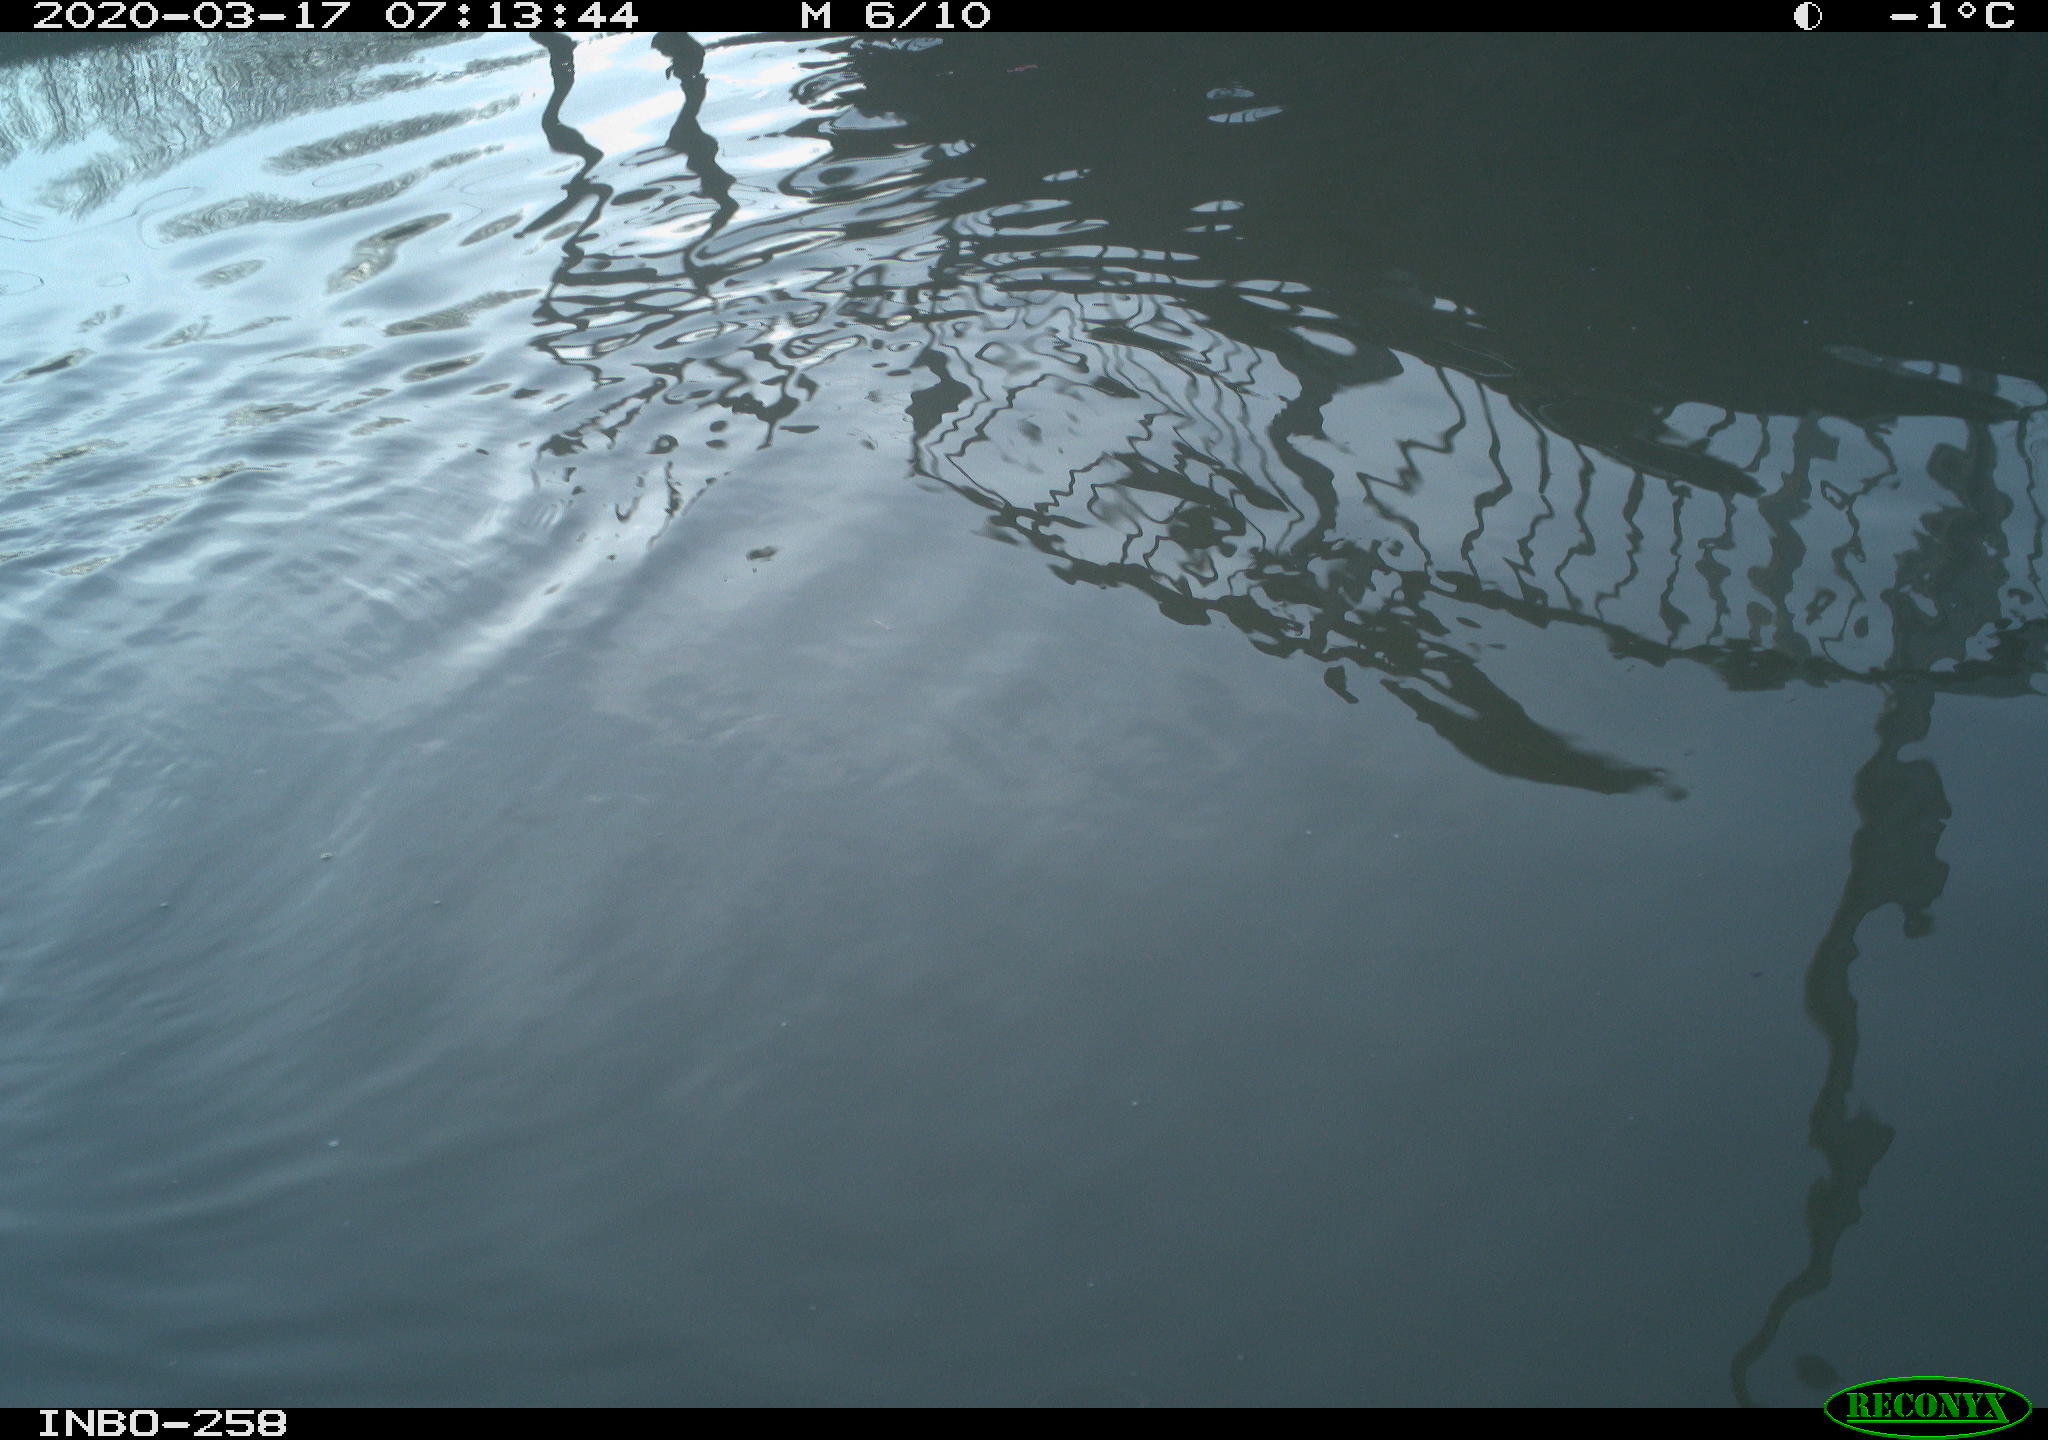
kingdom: Animalia
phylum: Chordata
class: Aves
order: Gruiformes
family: Rallidae
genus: Gallinula
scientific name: Gallinula chloropus
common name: Common moorhen
